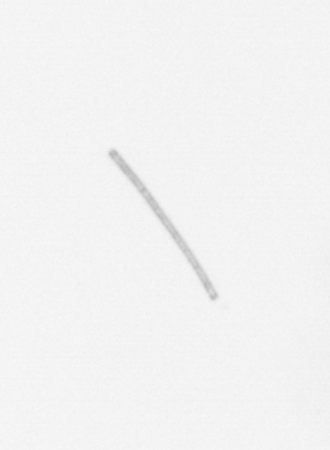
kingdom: Chromista
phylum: Ochrophyta
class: Bacillariophyceae
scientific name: Bacillariophyceae
